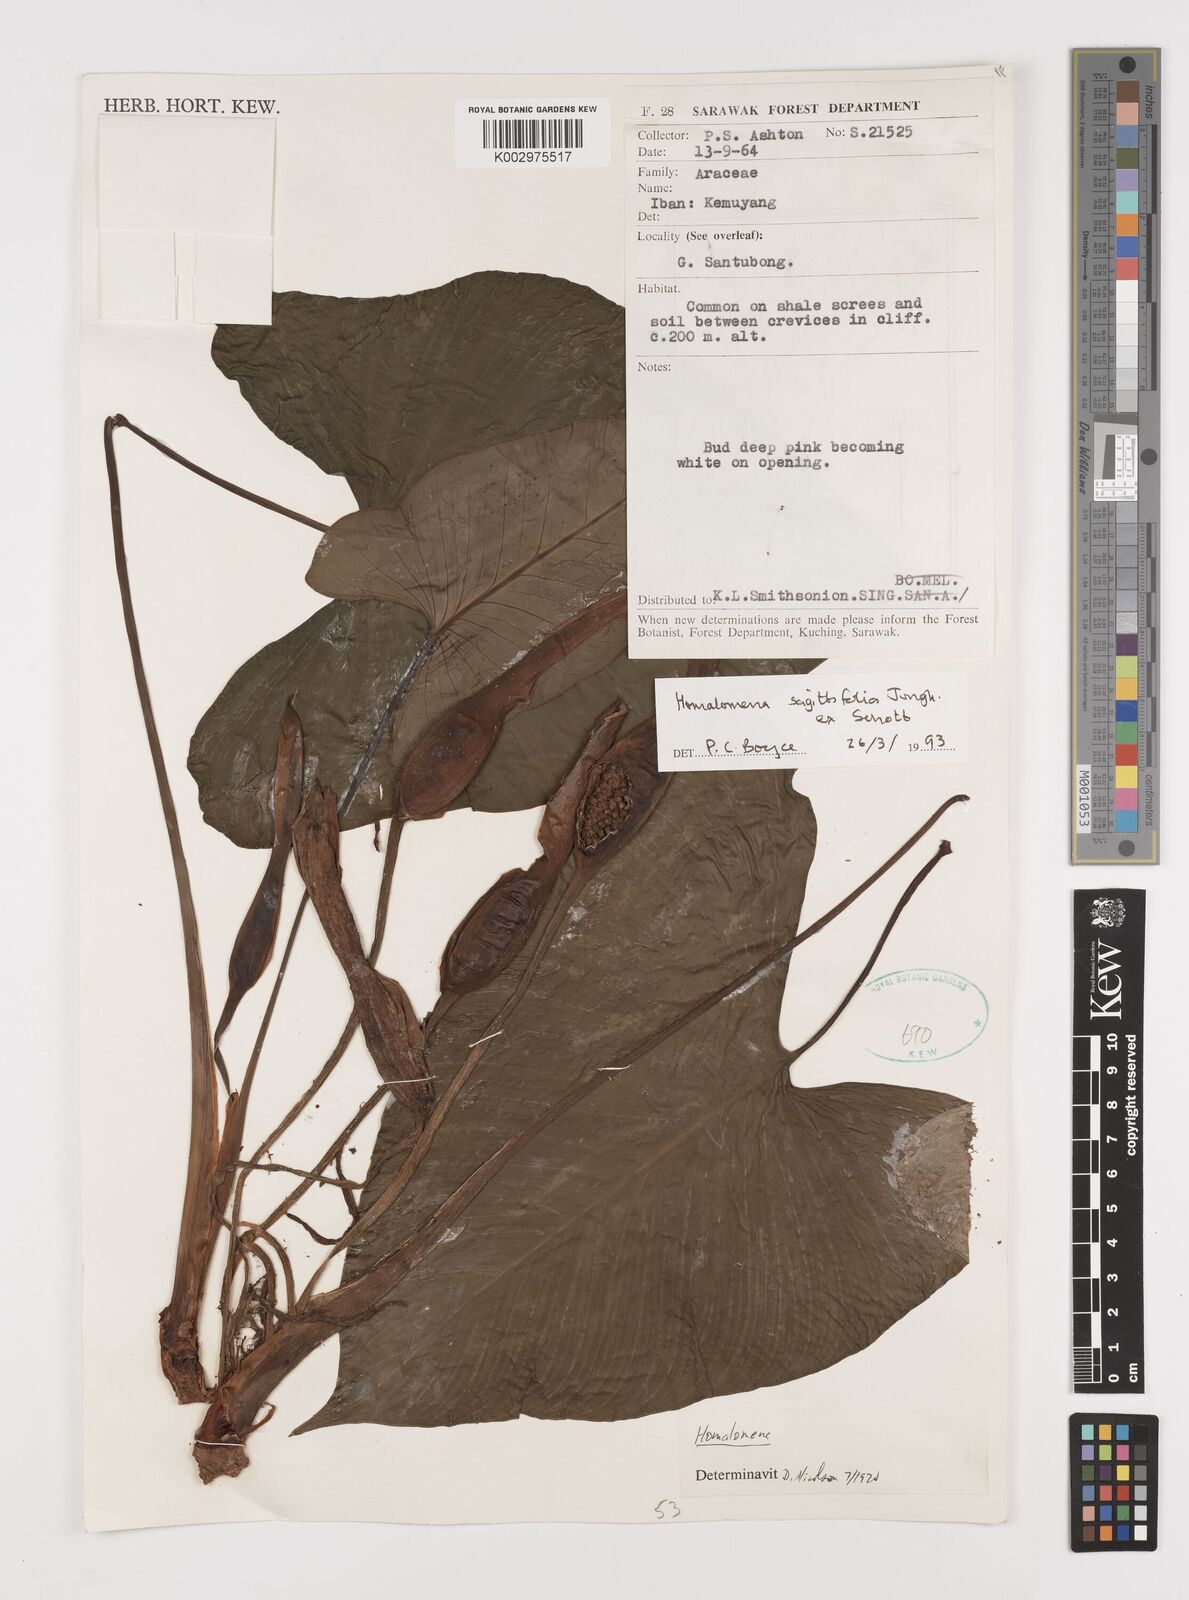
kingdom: Plantae
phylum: Tracheophyta
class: Liliopsida
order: Alismatales
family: Araceae
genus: Homalomena
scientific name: Homalomena rostrata
